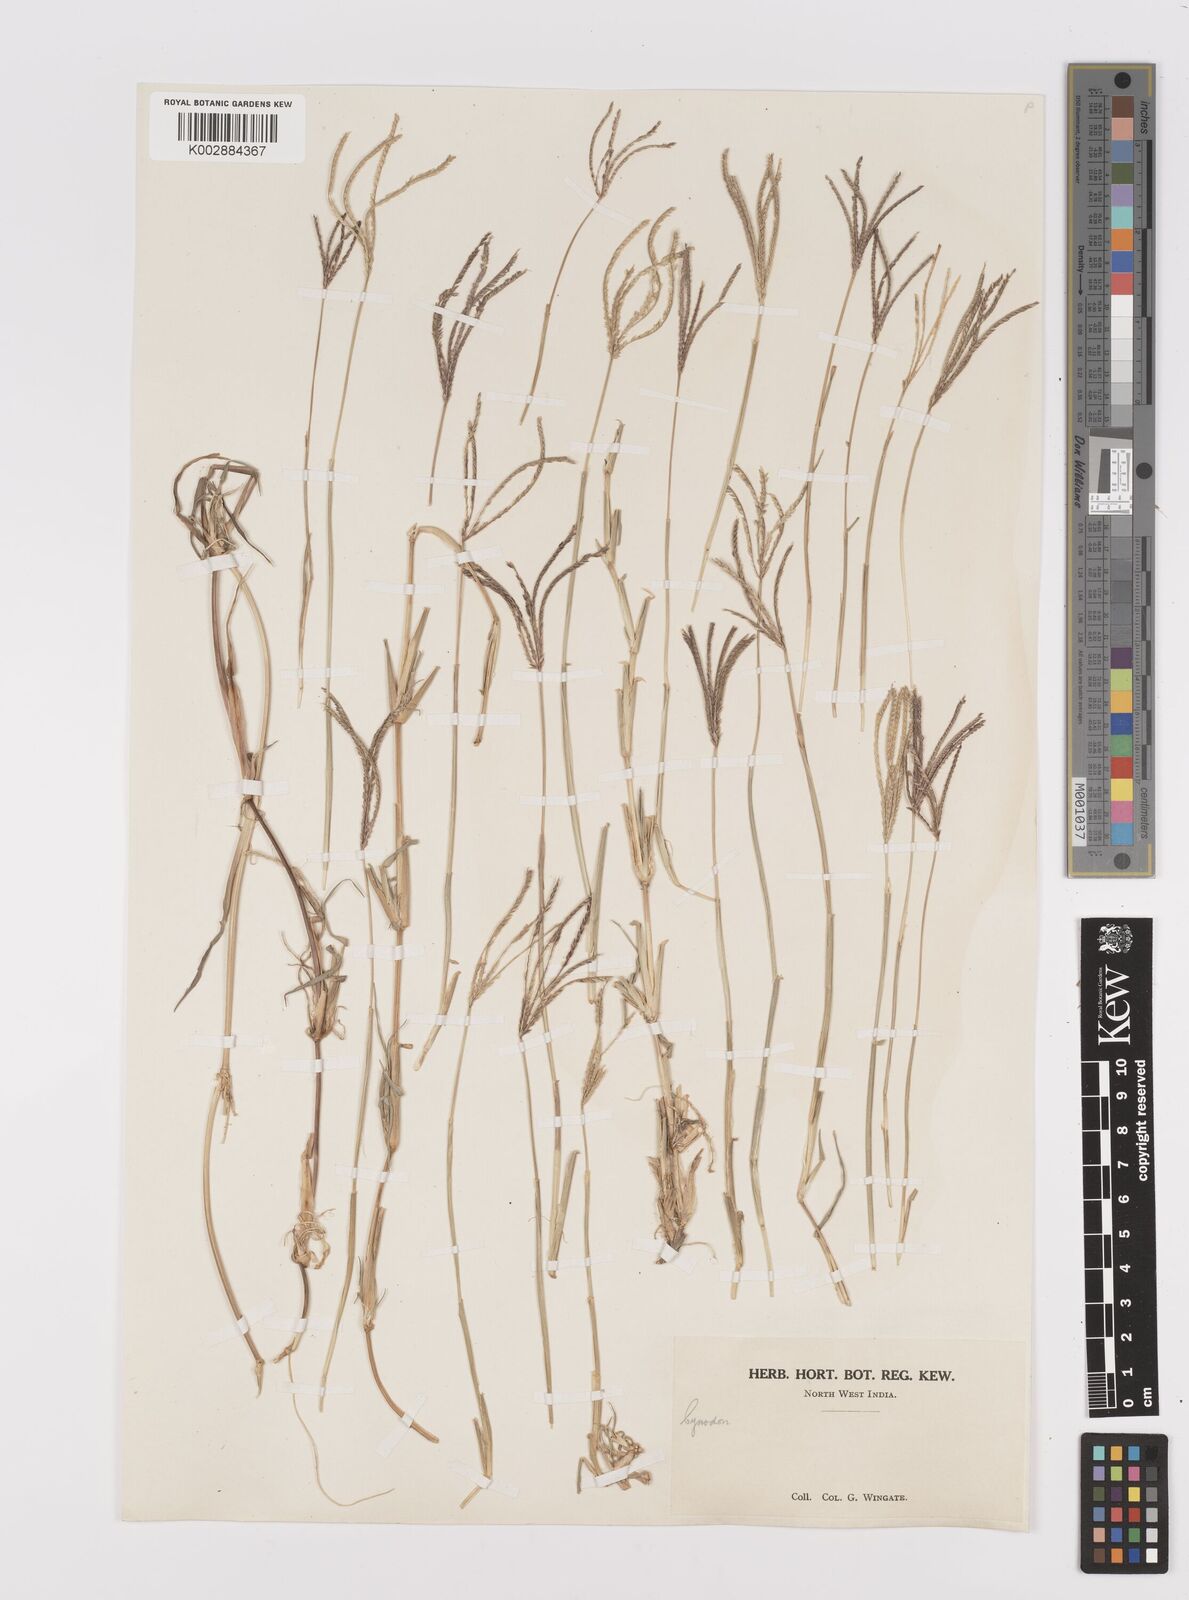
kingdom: Plantae
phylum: Tracheophyta
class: Liliopsida
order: Poales
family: Poaceae
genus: Cynodon
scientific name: Cynodon dactylon
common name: Bermuda grass
